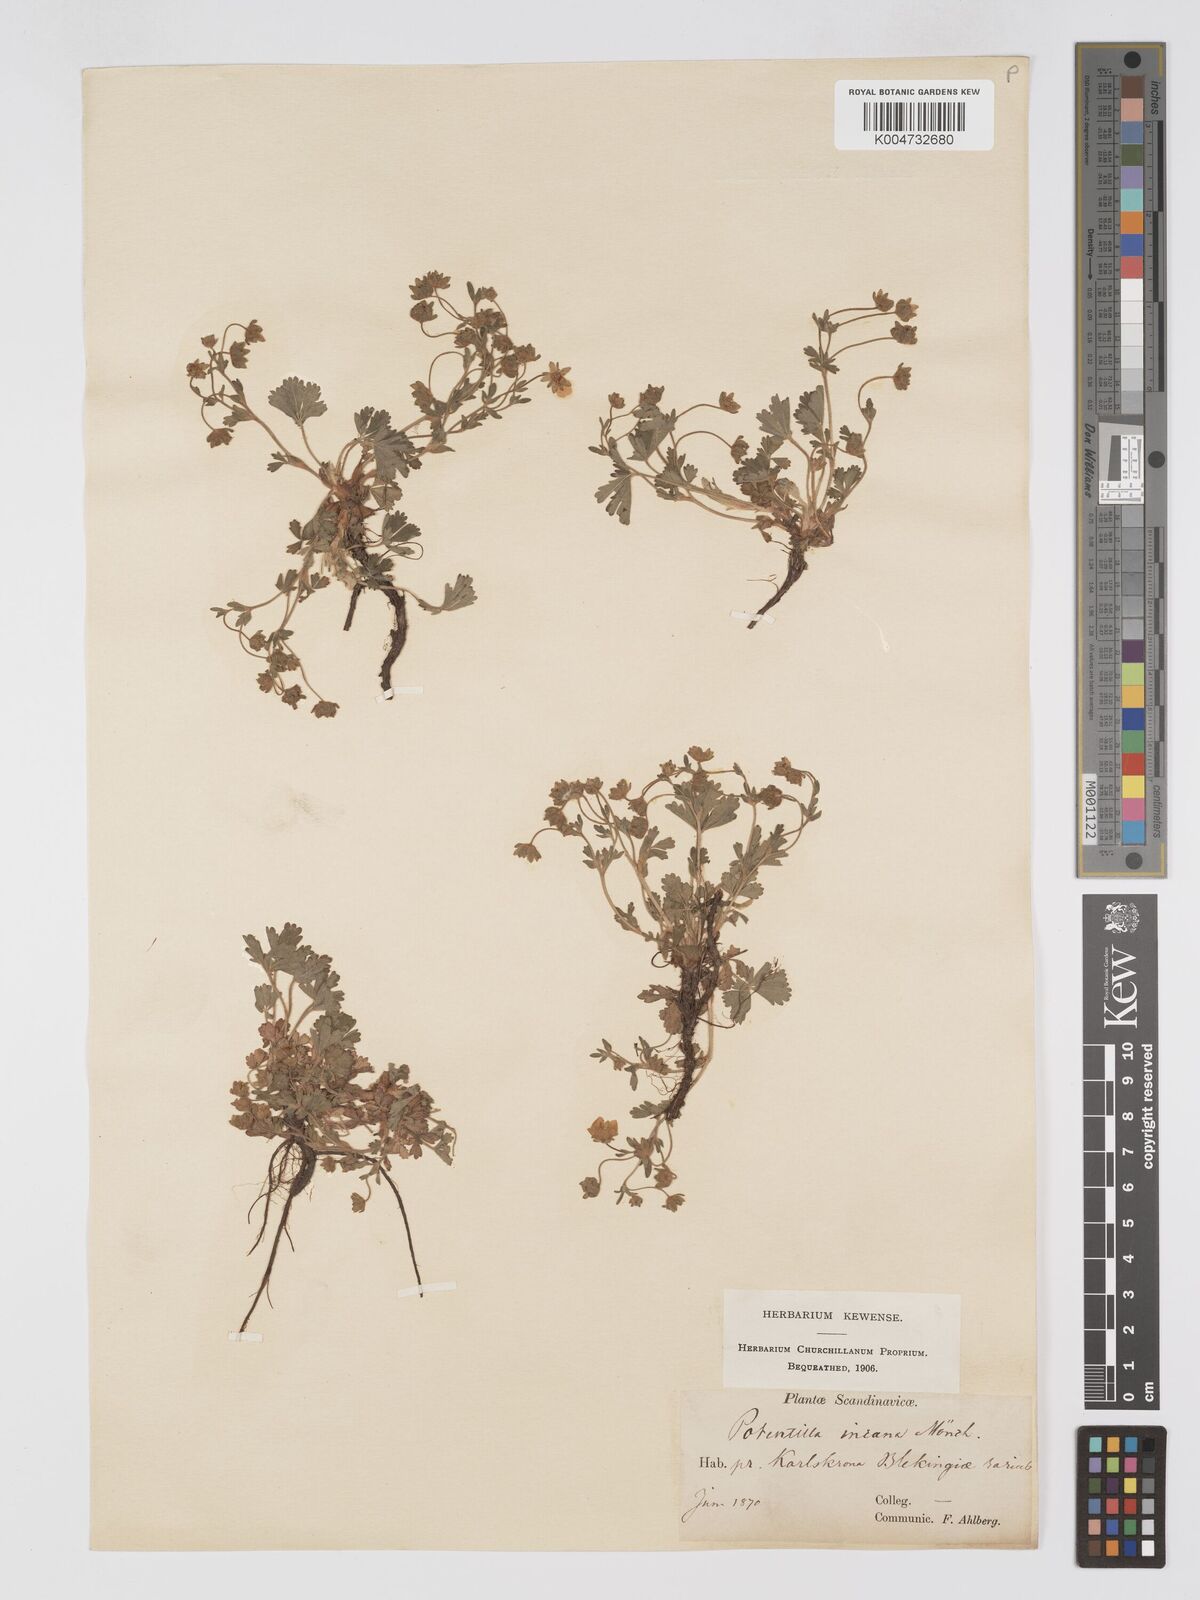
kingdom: Plantae
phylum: Tracheophyta
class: Magnoliopsida
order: Rosales
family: Rosaceae
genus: Potentilla
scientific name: Potentilla cinerea
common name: Ashy cinquefoil
